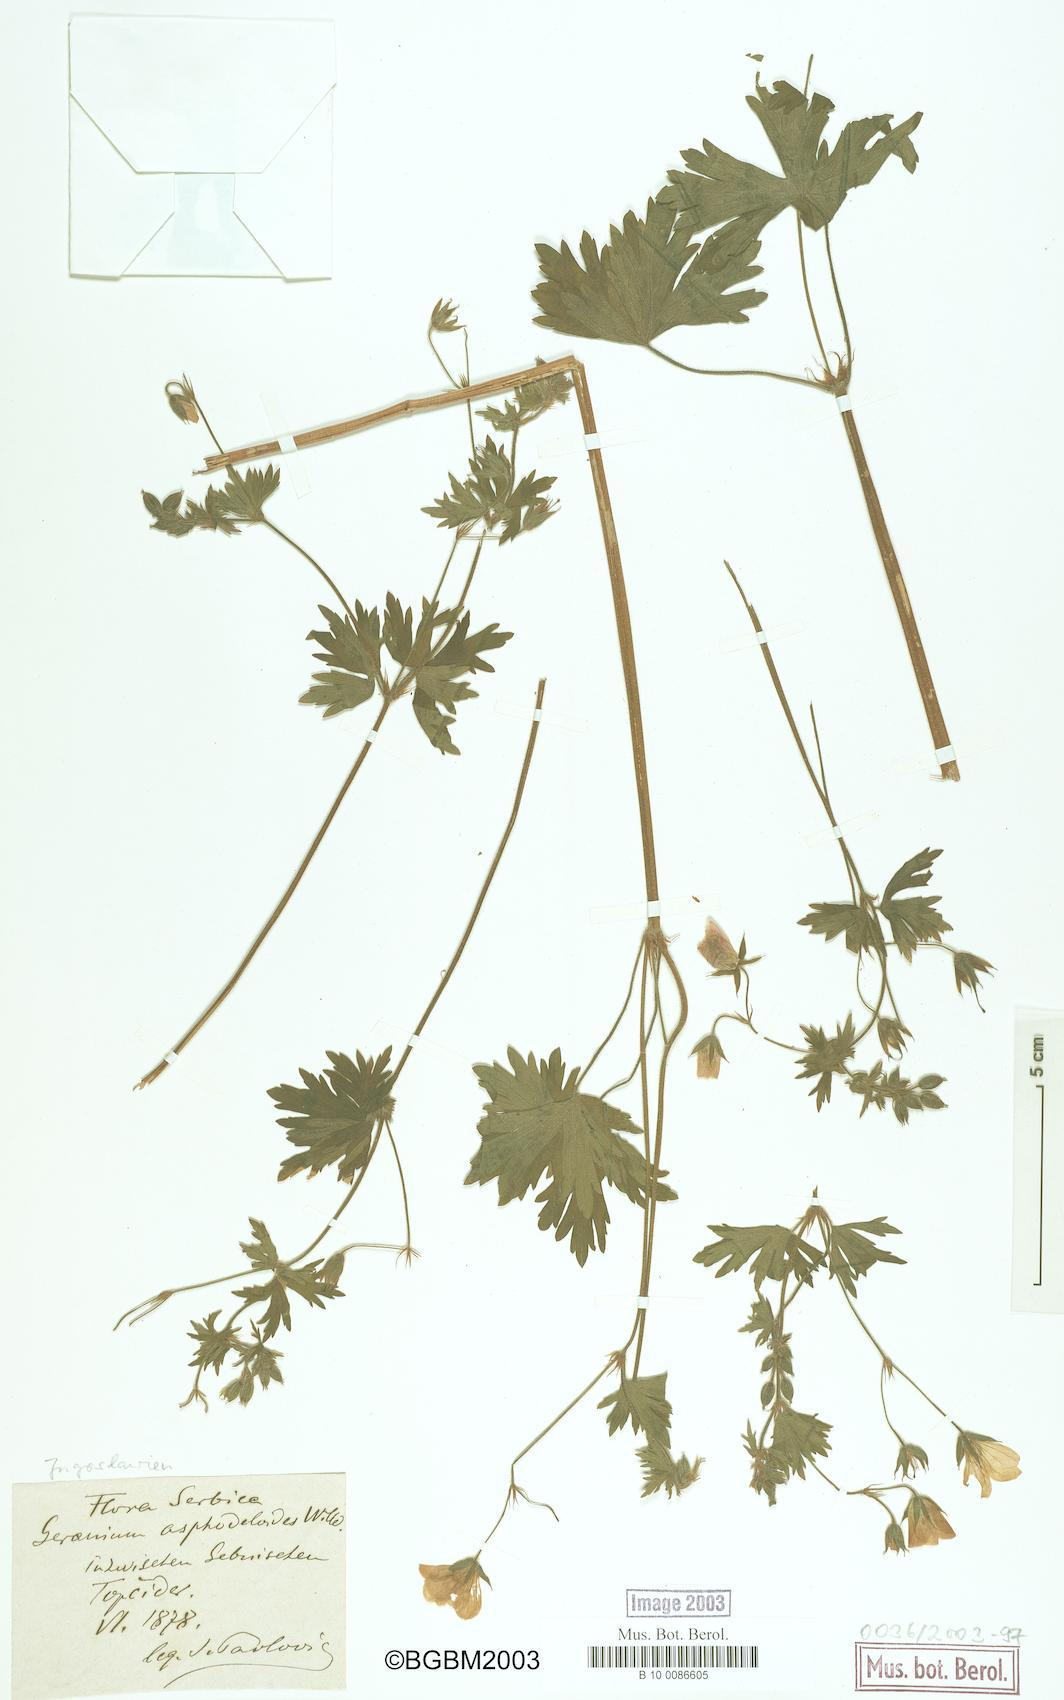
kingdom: Plantae
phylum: Tracheophyta
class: Magnoliopsida
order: Geraniales
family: Geraniaceae
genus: Geranium
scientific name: Geranium asphodeloides
